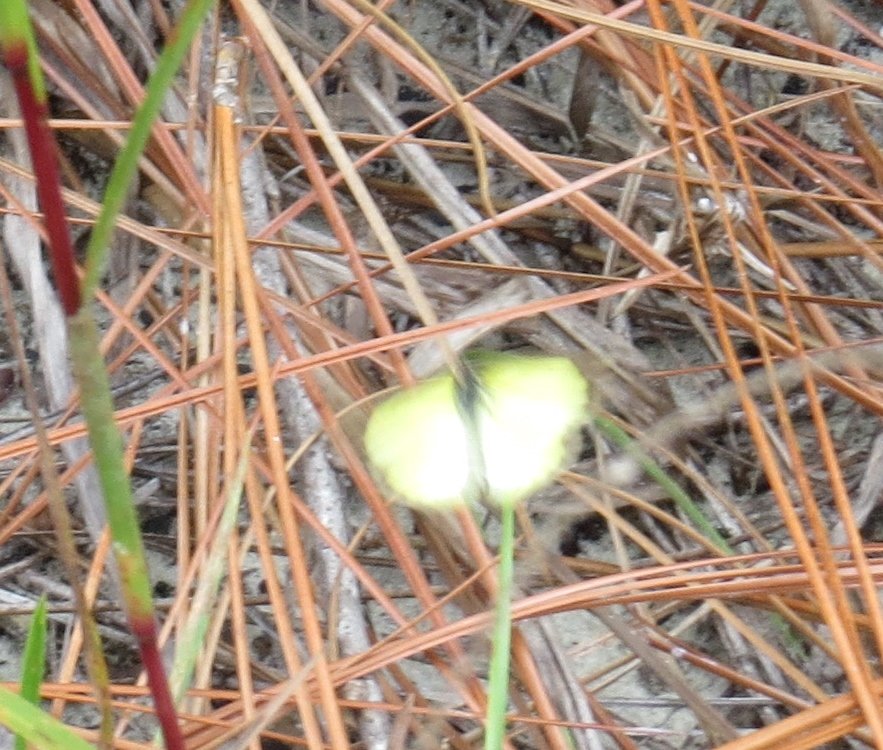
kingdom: Animalia
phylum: Arthropoda
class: Insecta
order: Lepidoptera
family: Pieridae
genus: Pyrisitia
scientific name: Pyrisitia lisa
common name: Little Yellow
